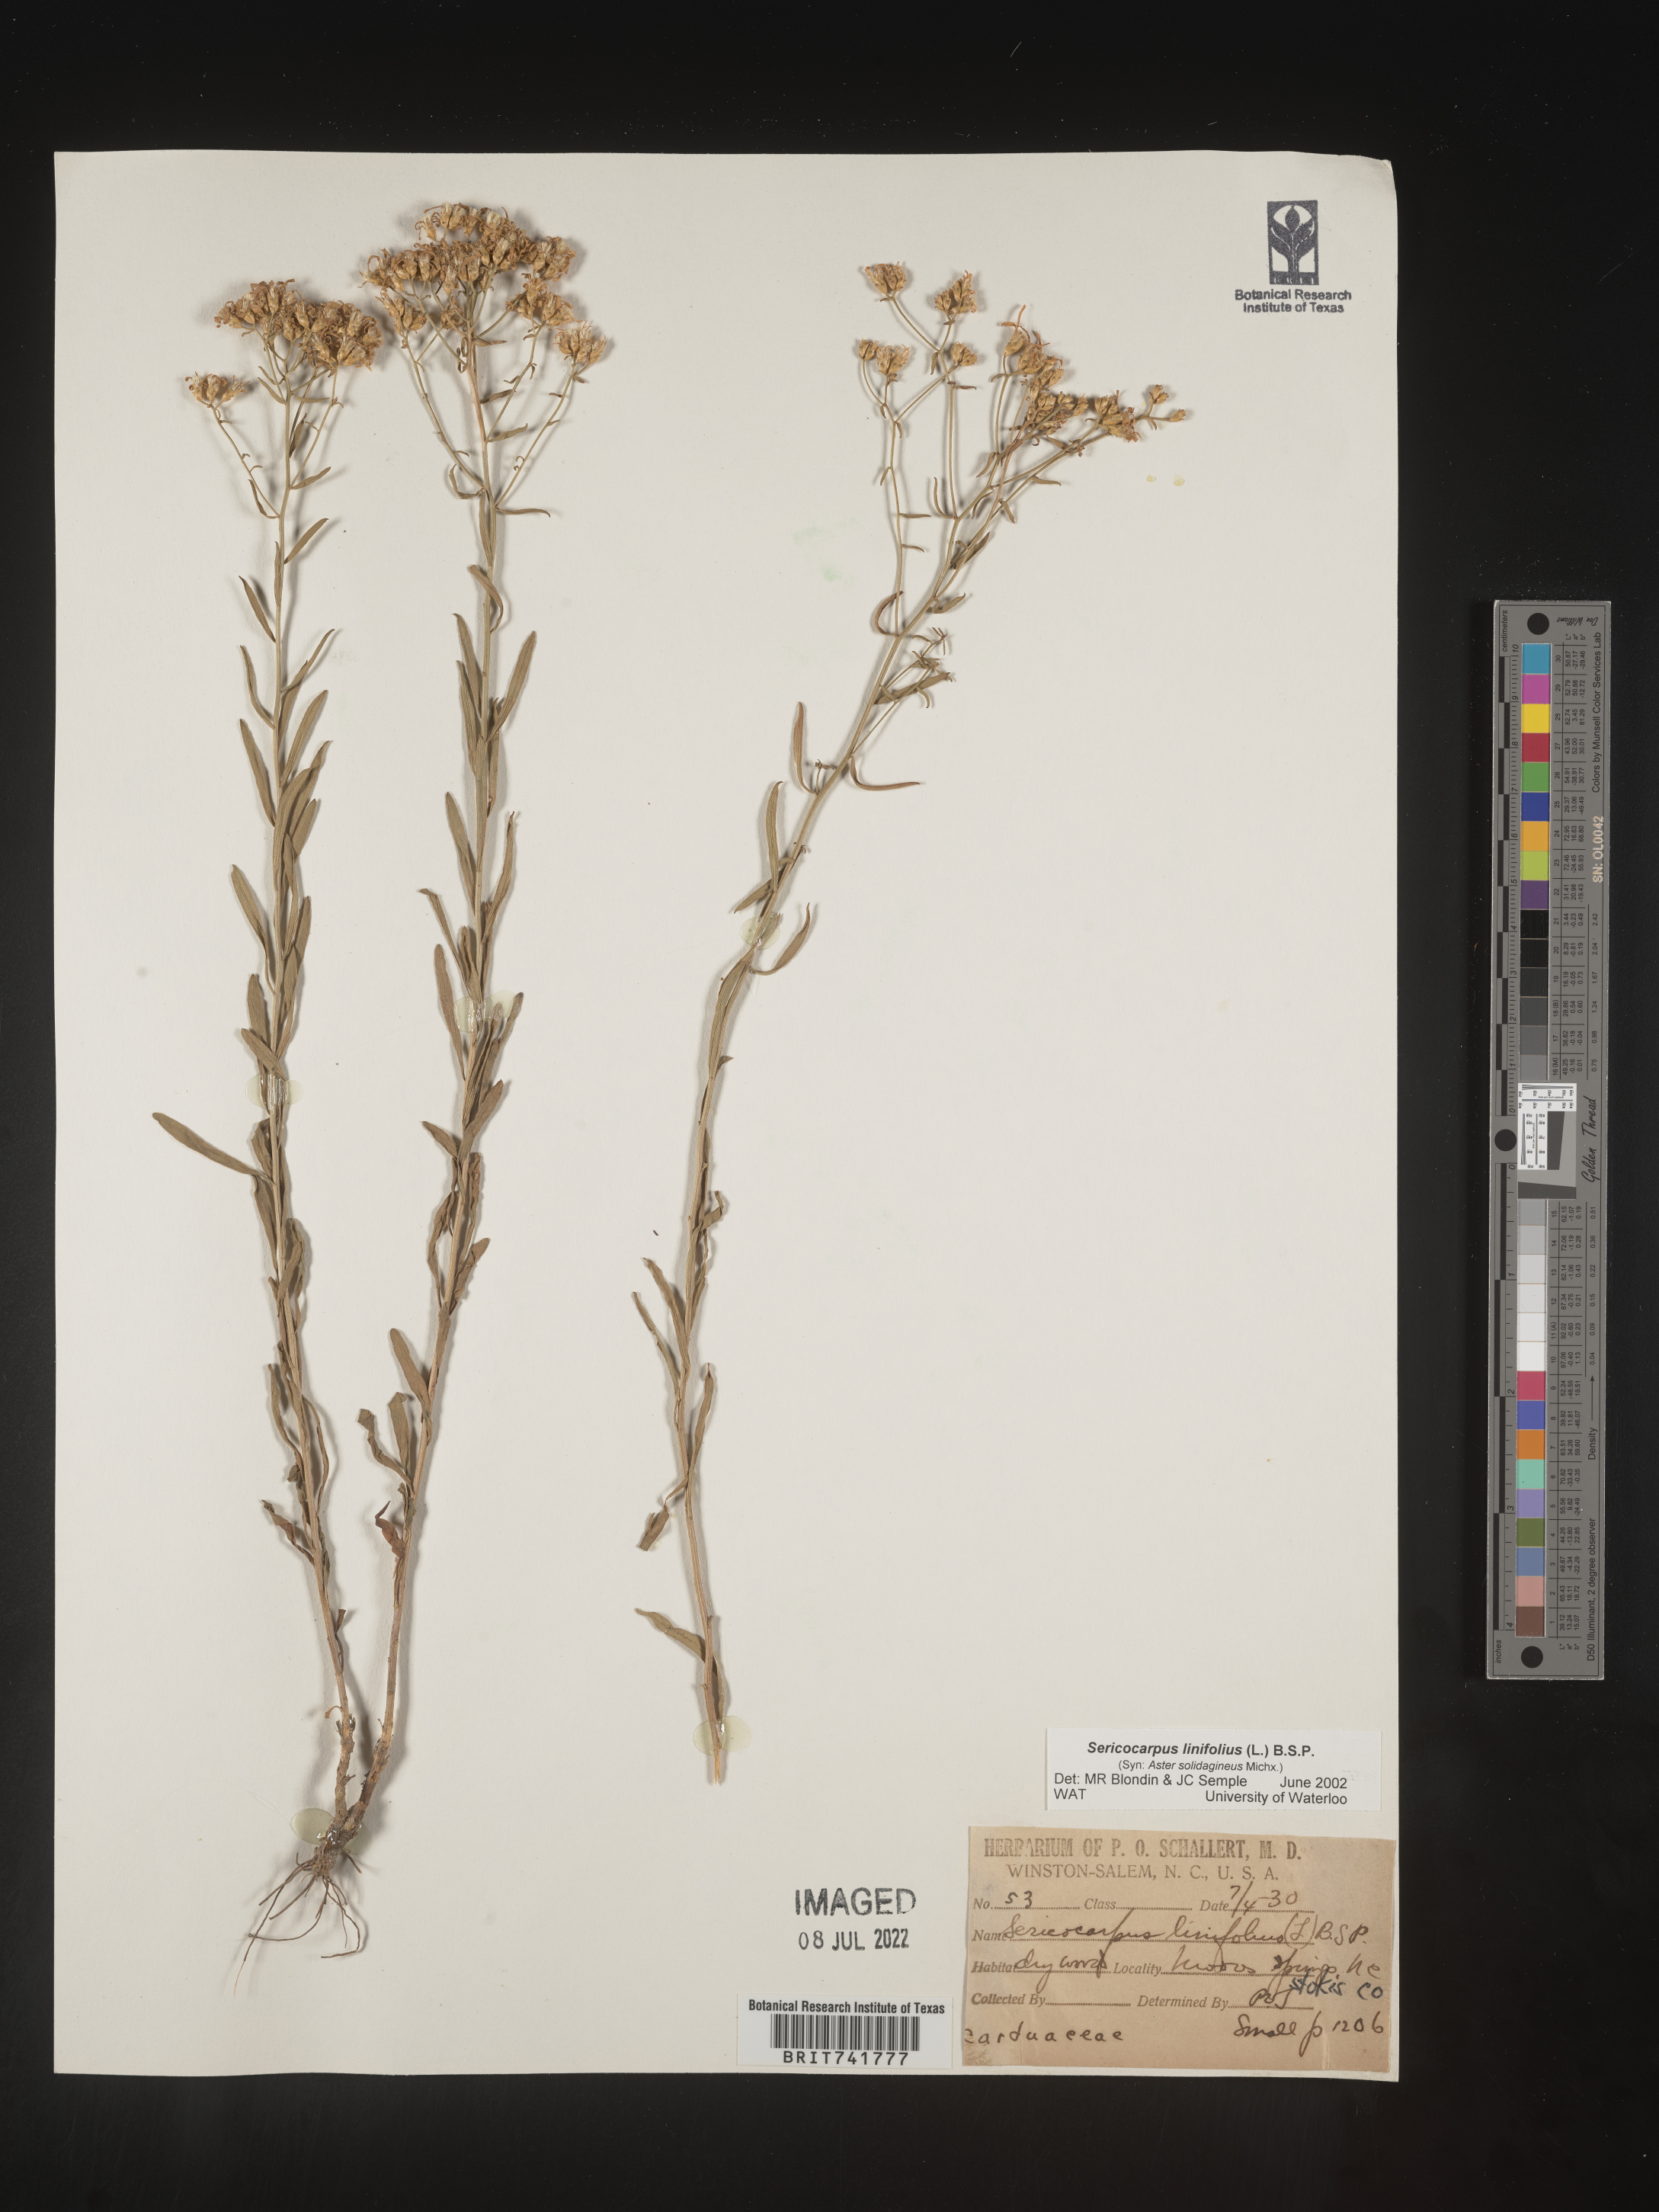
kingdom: Plantae
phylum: Tracheophyta
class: Magnoliopsida
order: Asterales
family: Asteraceae
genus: Sericocarpus
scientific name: Sericocarpus linifolius
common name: Narrow-leaf aster
